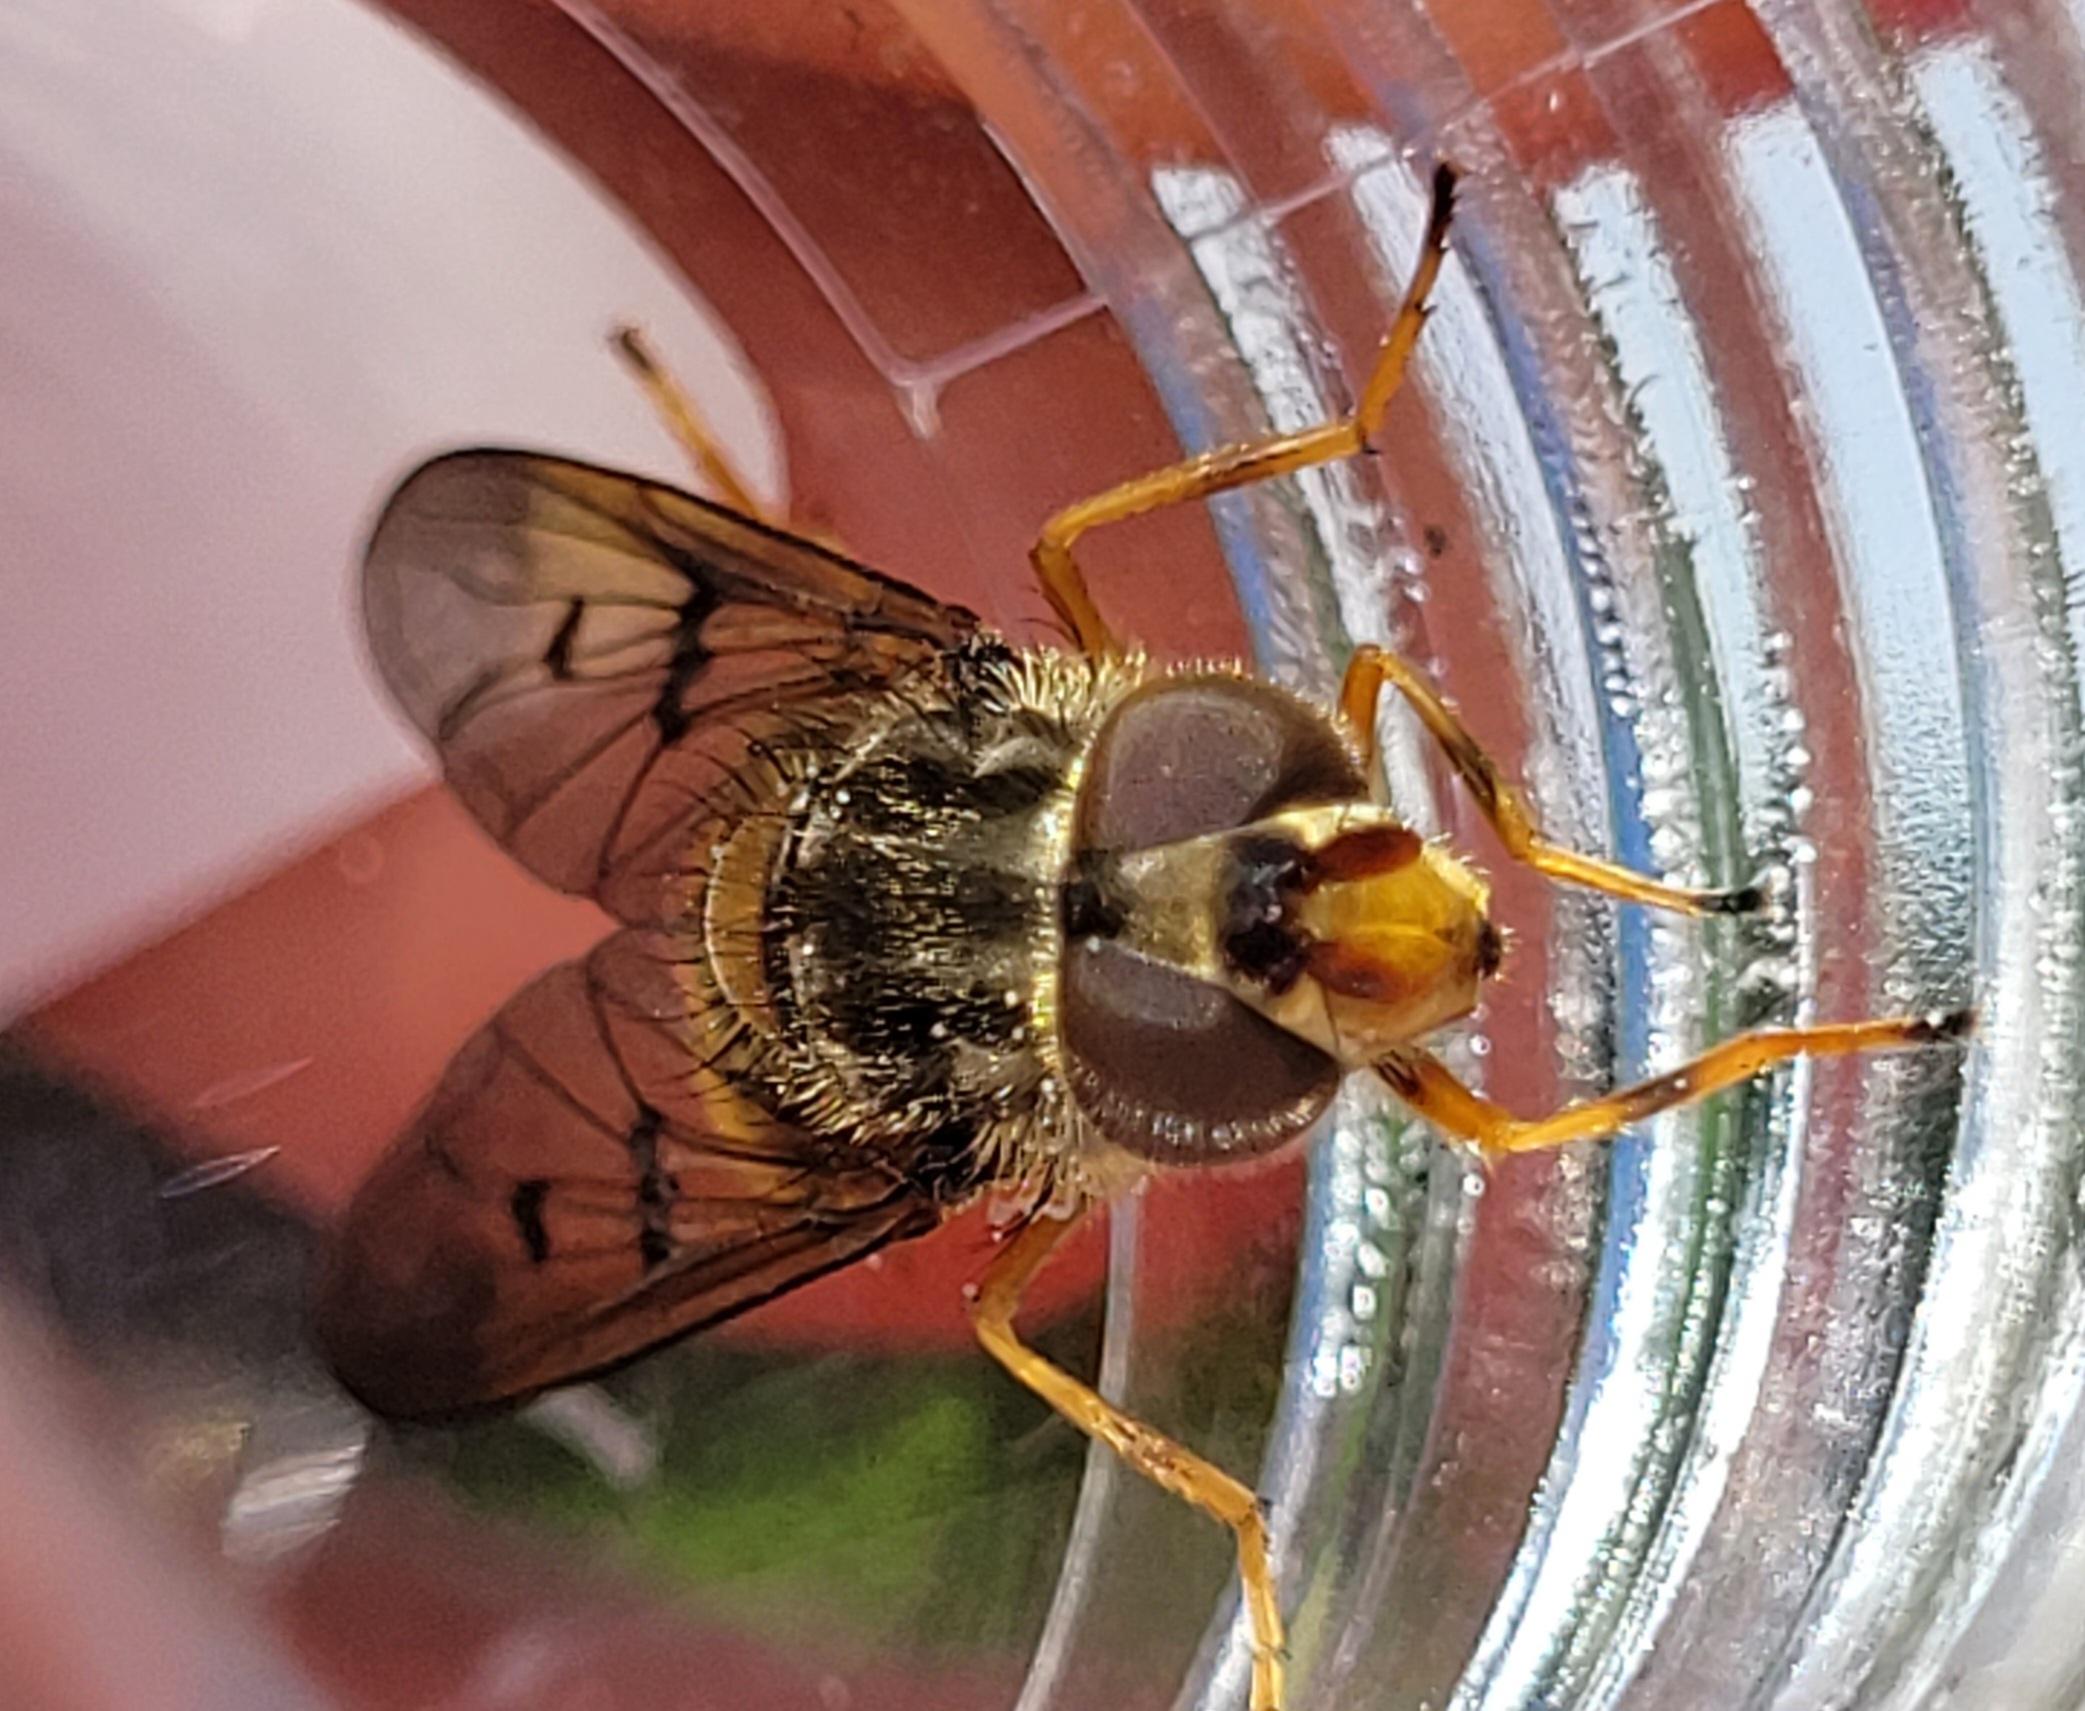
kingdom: Animalia
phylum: Arthropoda
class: Insecta
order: Diptera
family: Syrphidae
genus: Ferdinandea
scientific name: Ferdinandea cuprea
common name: Sorthornet guldsvirreflue
